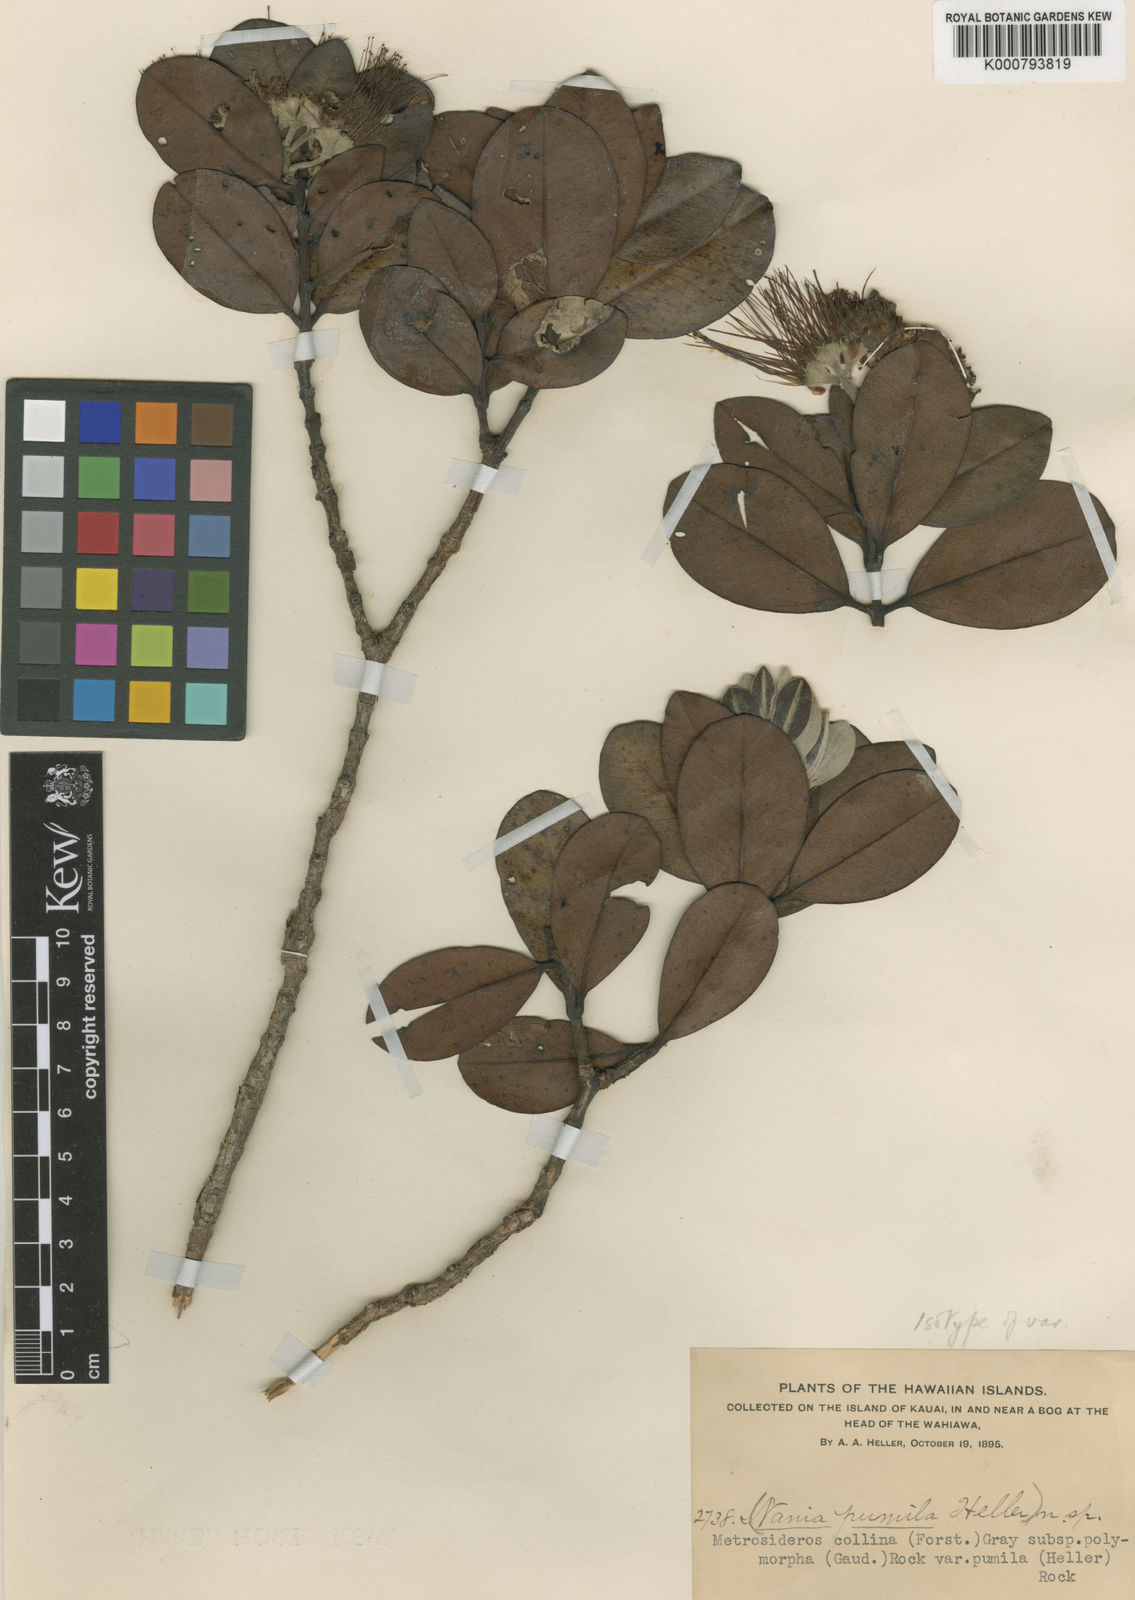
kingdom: Plantae
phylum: Tracheophyta
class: Magnoliopsida
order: Myrtales
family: Myrtaceae
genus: Metrosideros
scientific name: Metrosideros polymorpha
